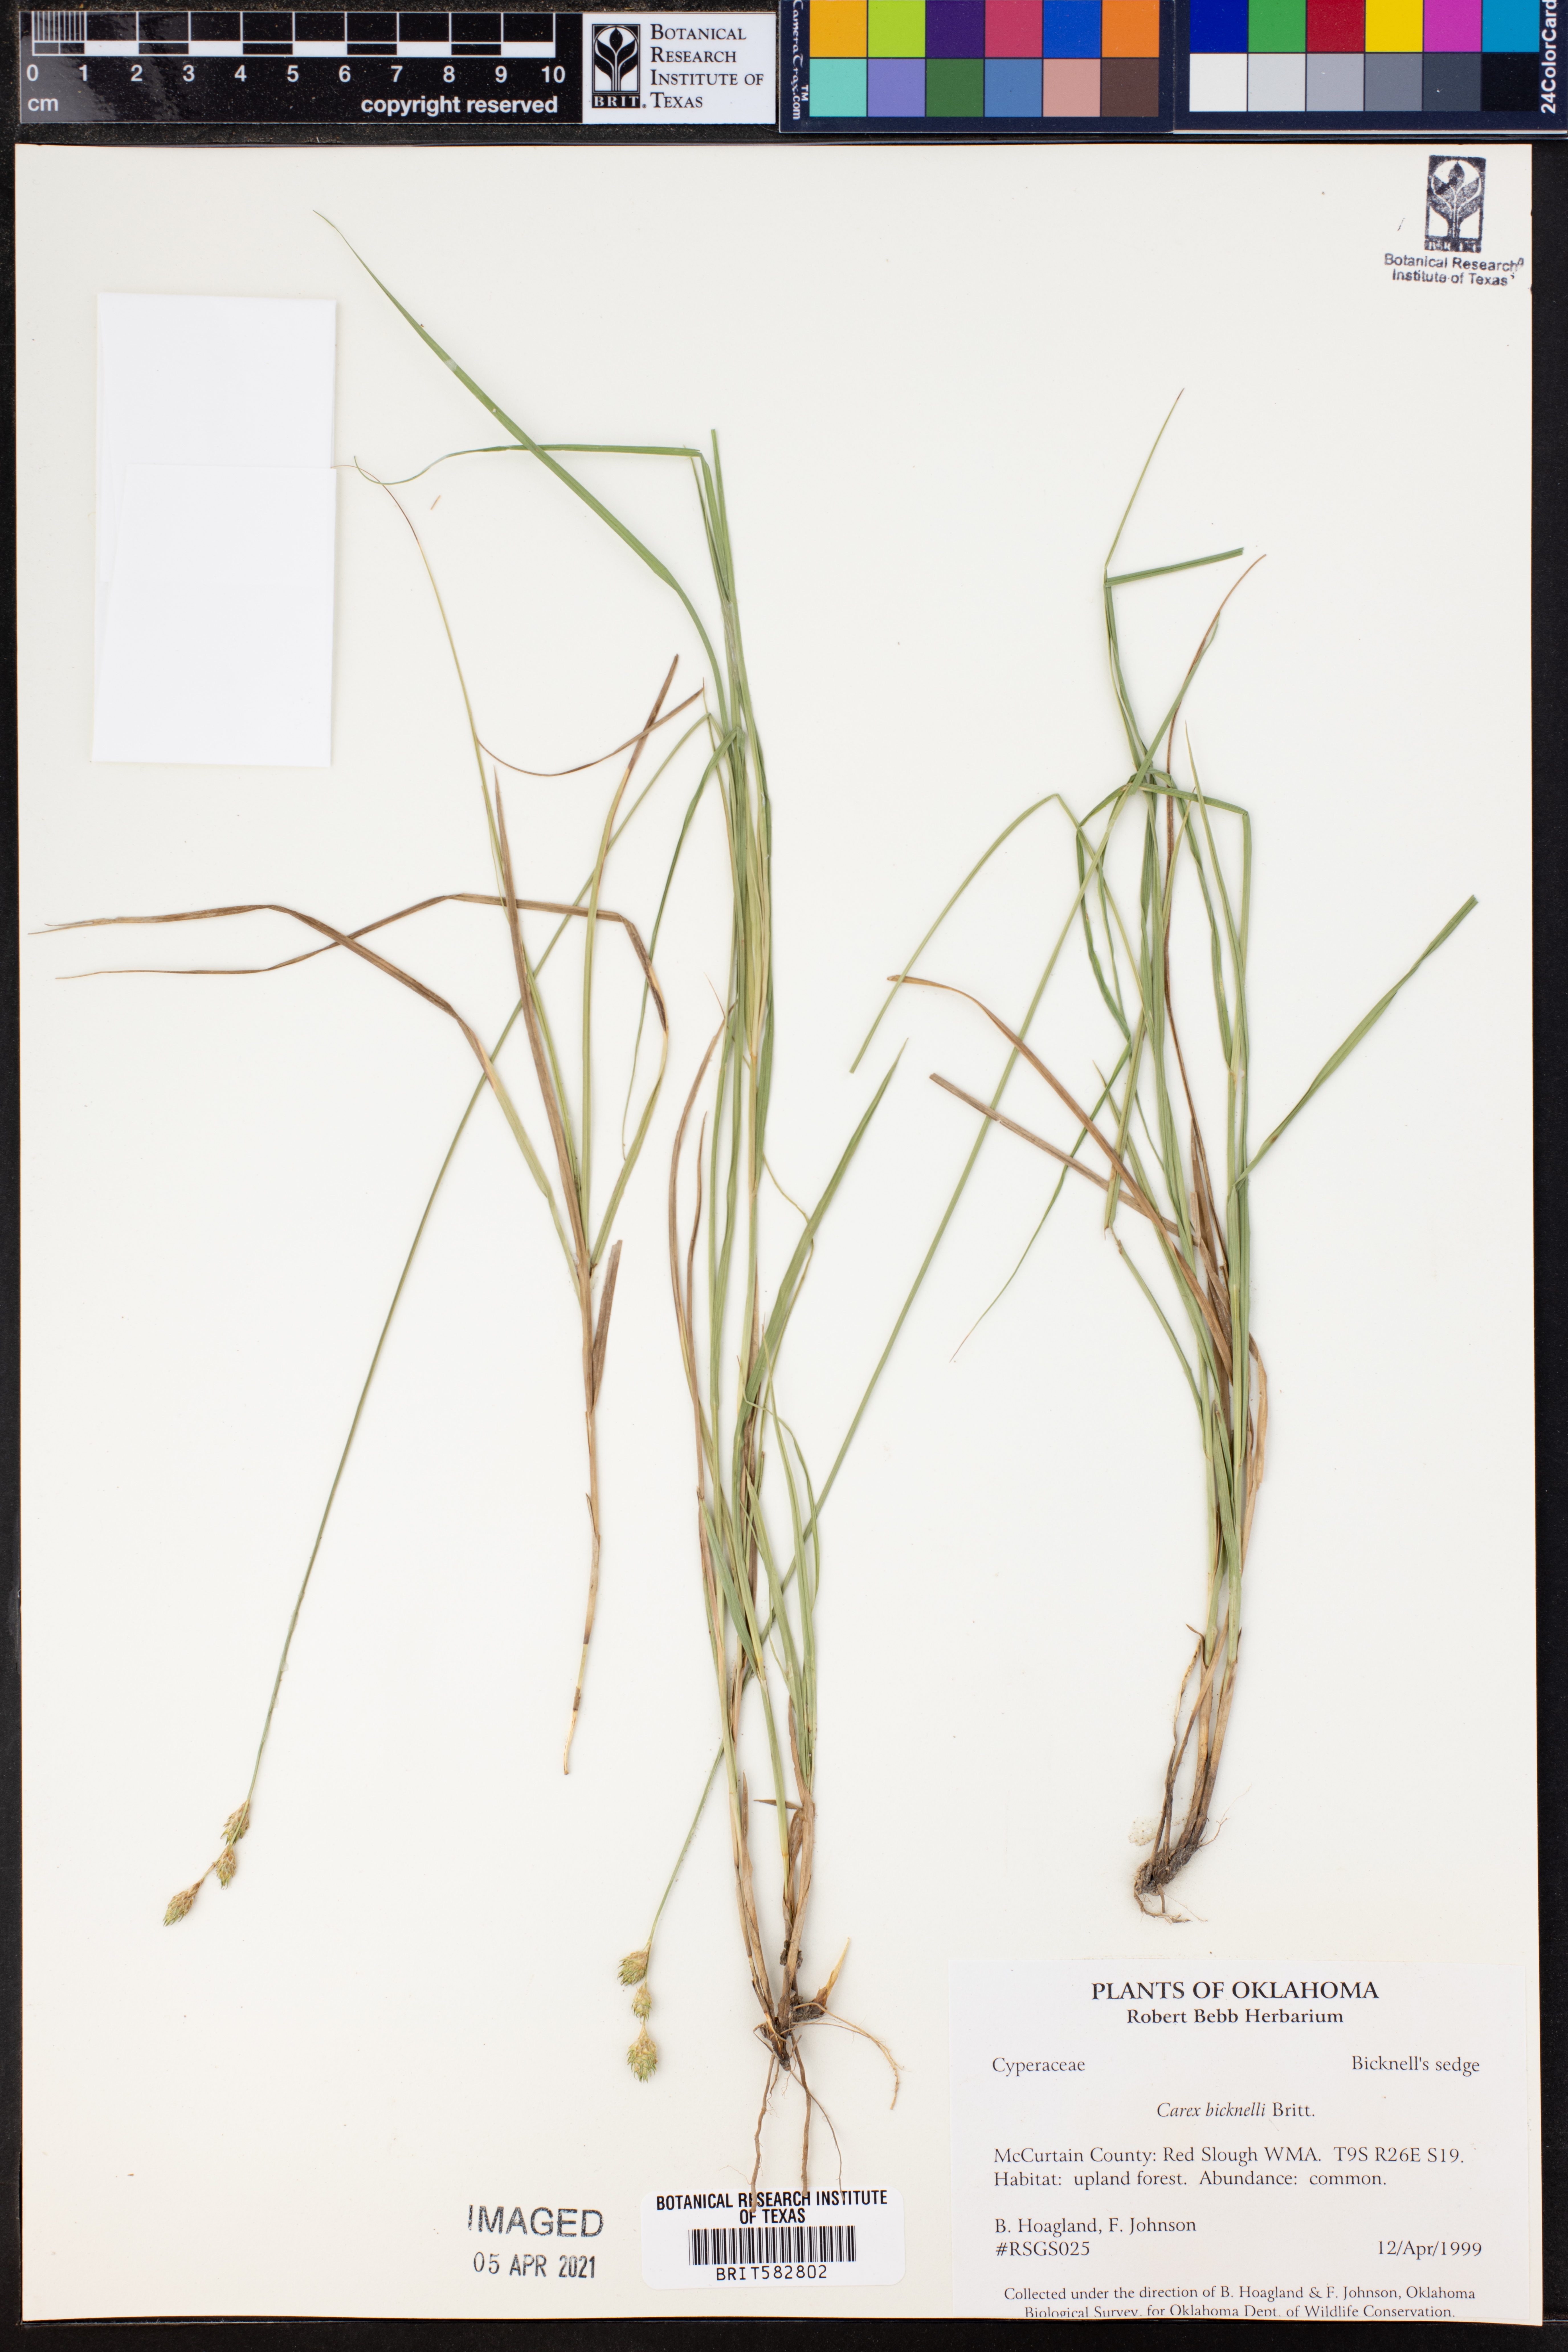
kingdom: Plantae
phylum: Tracheophyta
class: Liliopsida
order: Poales
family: Cyperaceae
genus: Carex
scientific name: Carex bicknellii
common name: Bicknell's sedge
